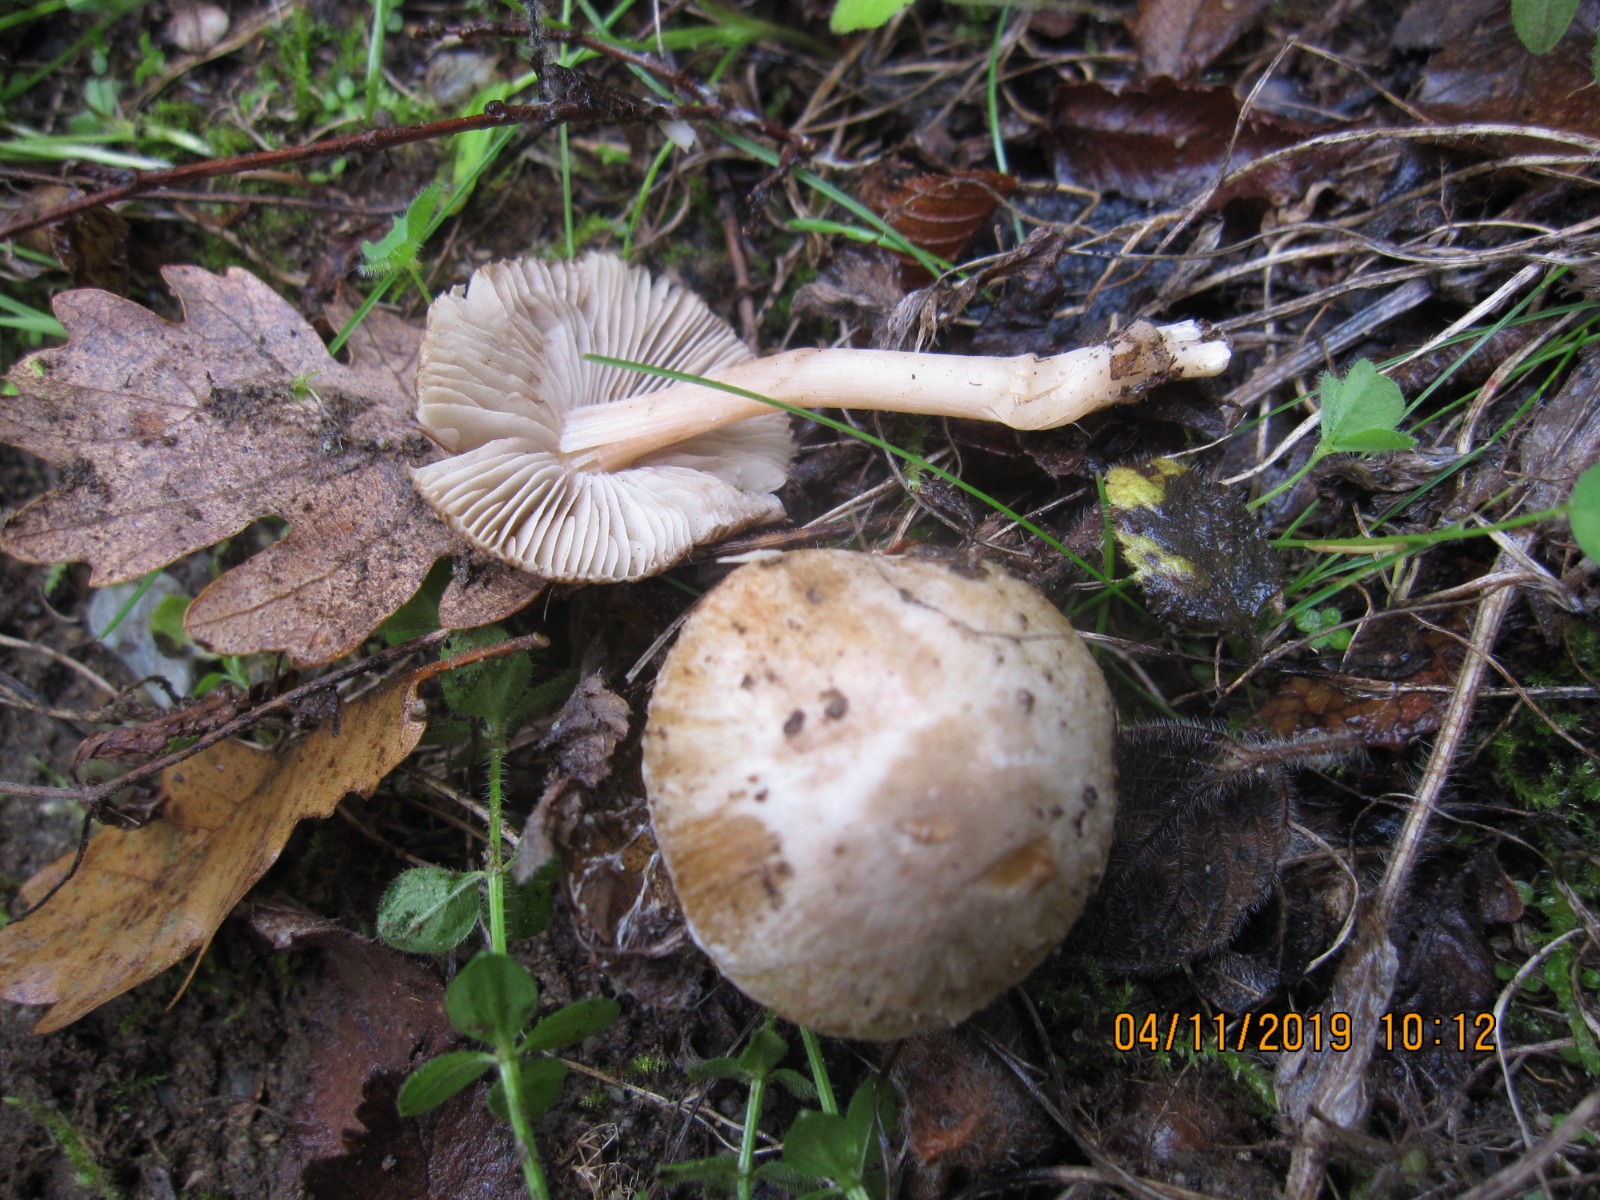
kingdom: Fungi
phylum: Basidiomycota
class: Agaricomycetes
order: Agaricales
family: Inocybaceae
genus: Inocybe
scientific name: Inocybe fraudans
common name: pæreduftende trævlhat
